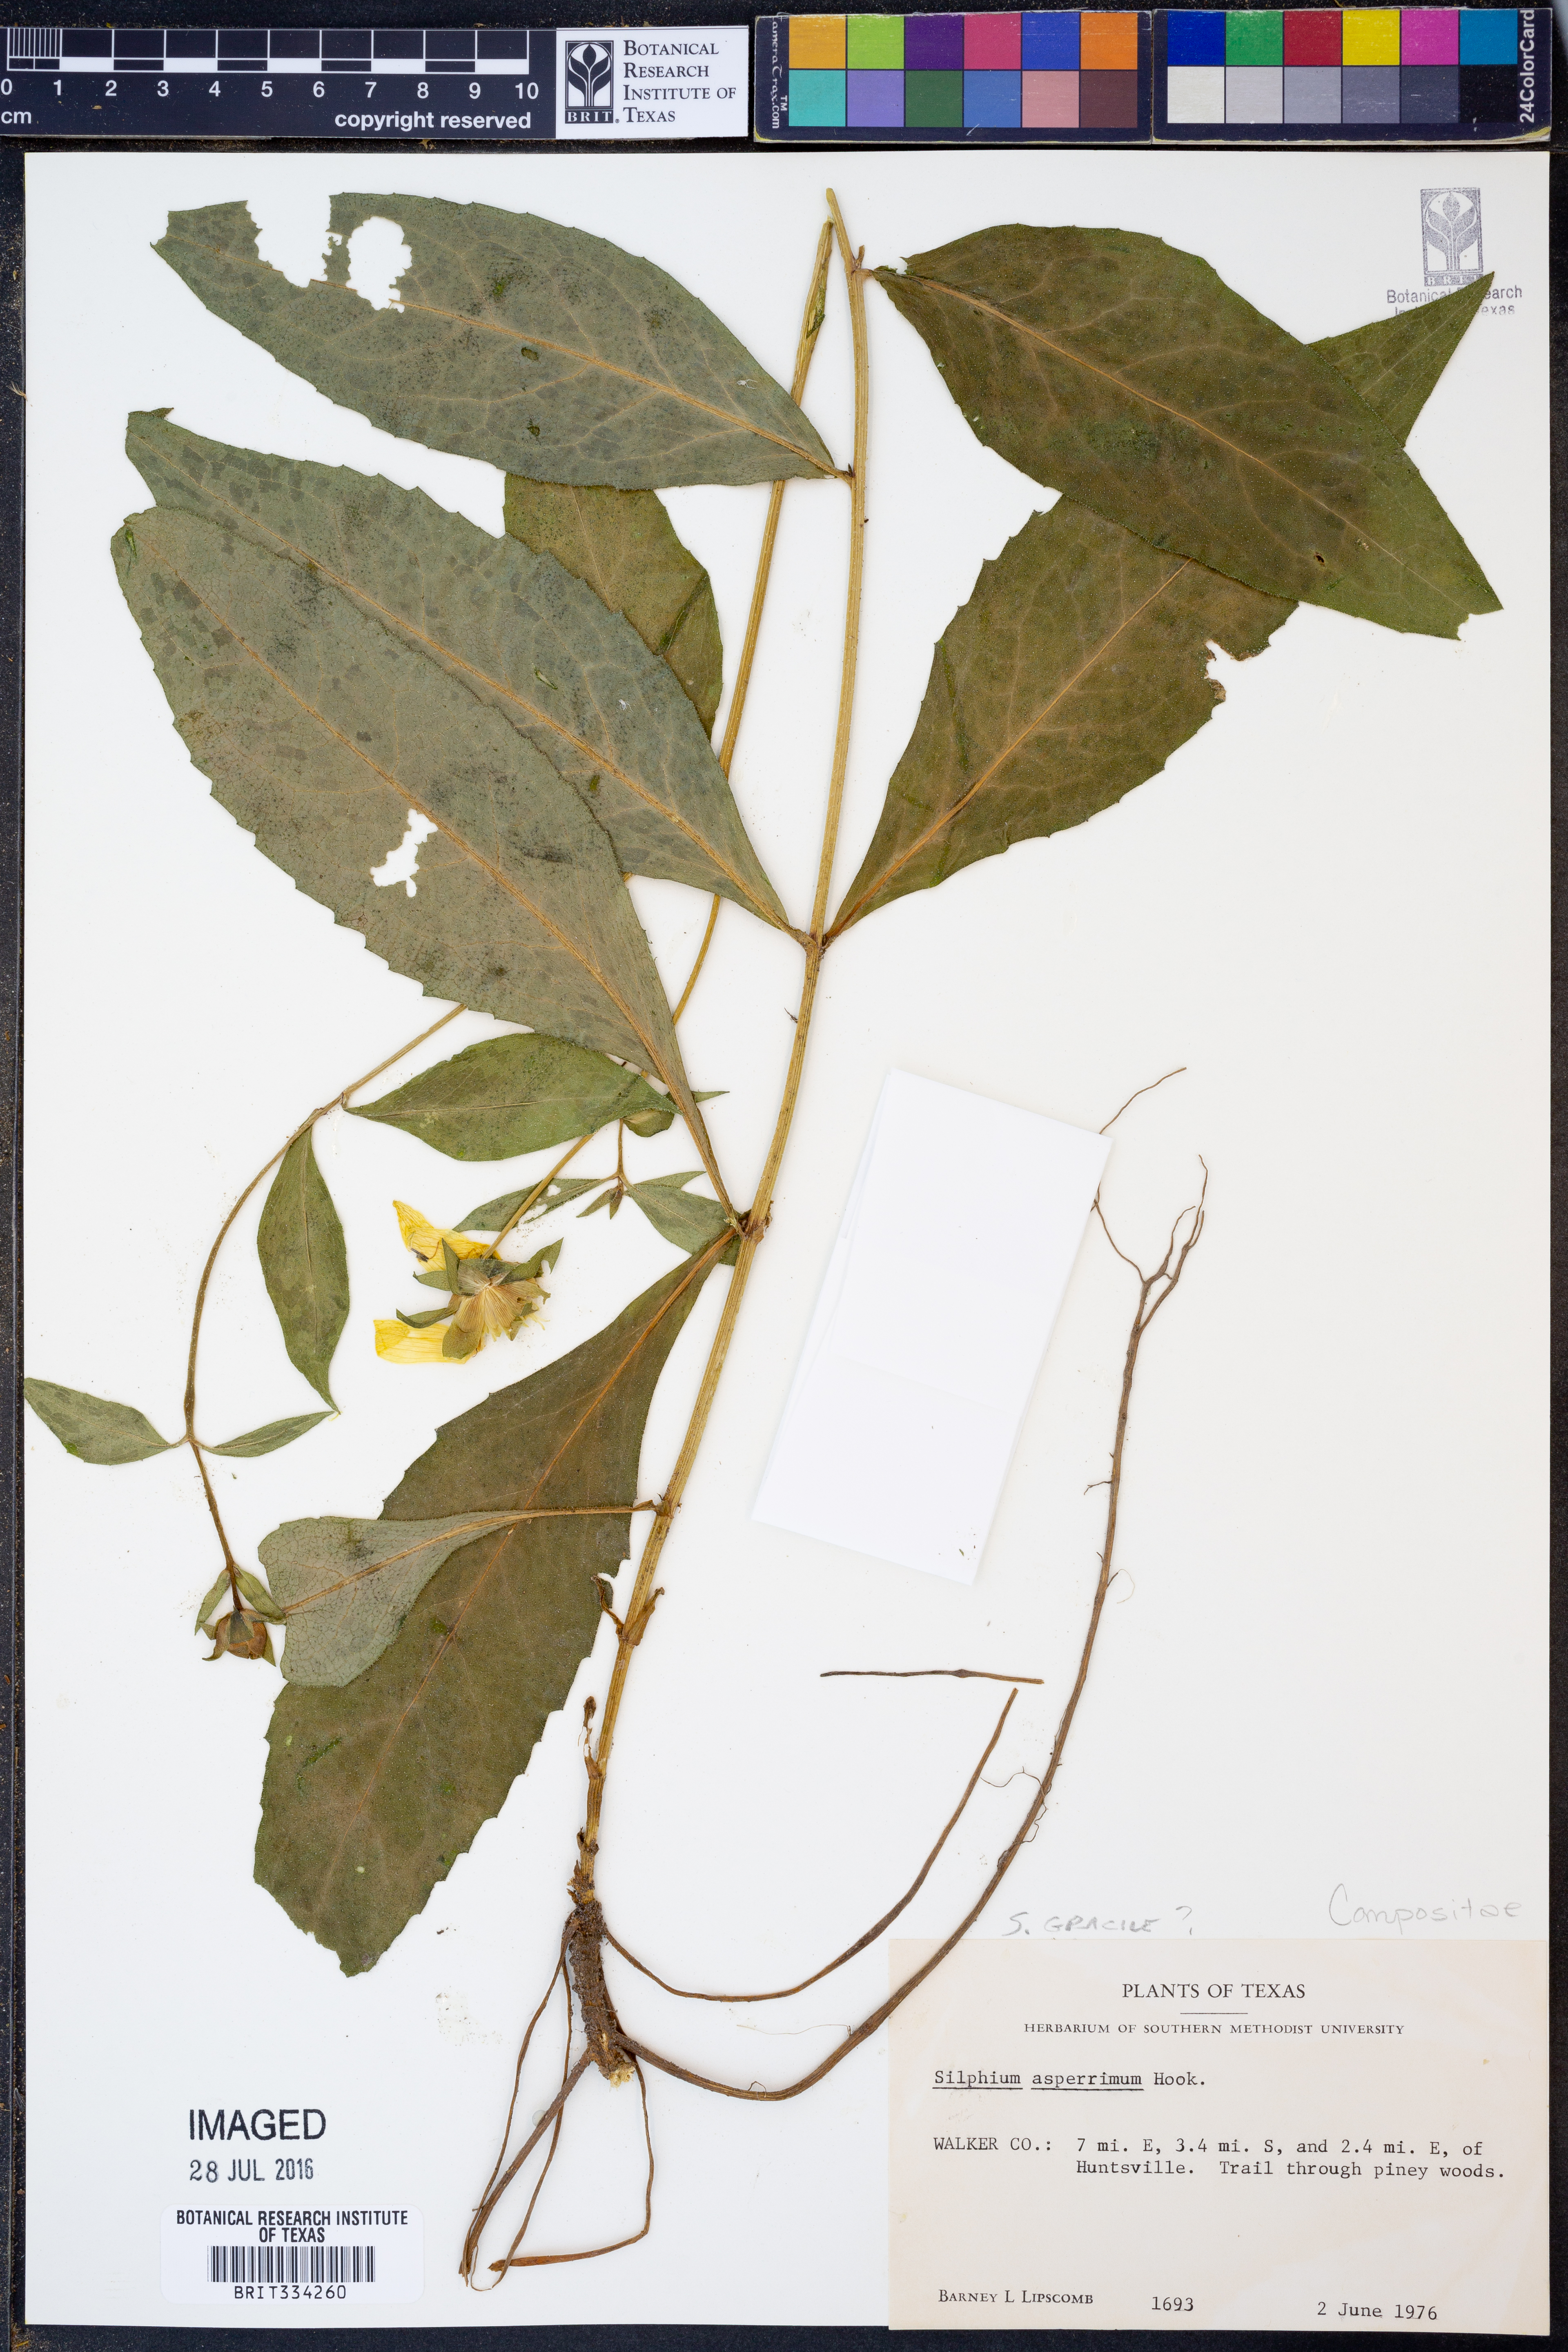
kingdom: Plantae
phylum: Tracheophyta
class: Magnoliopsida
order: Asterales
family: Asteraceae
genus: Silphium
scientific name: Silphium asperrimum
